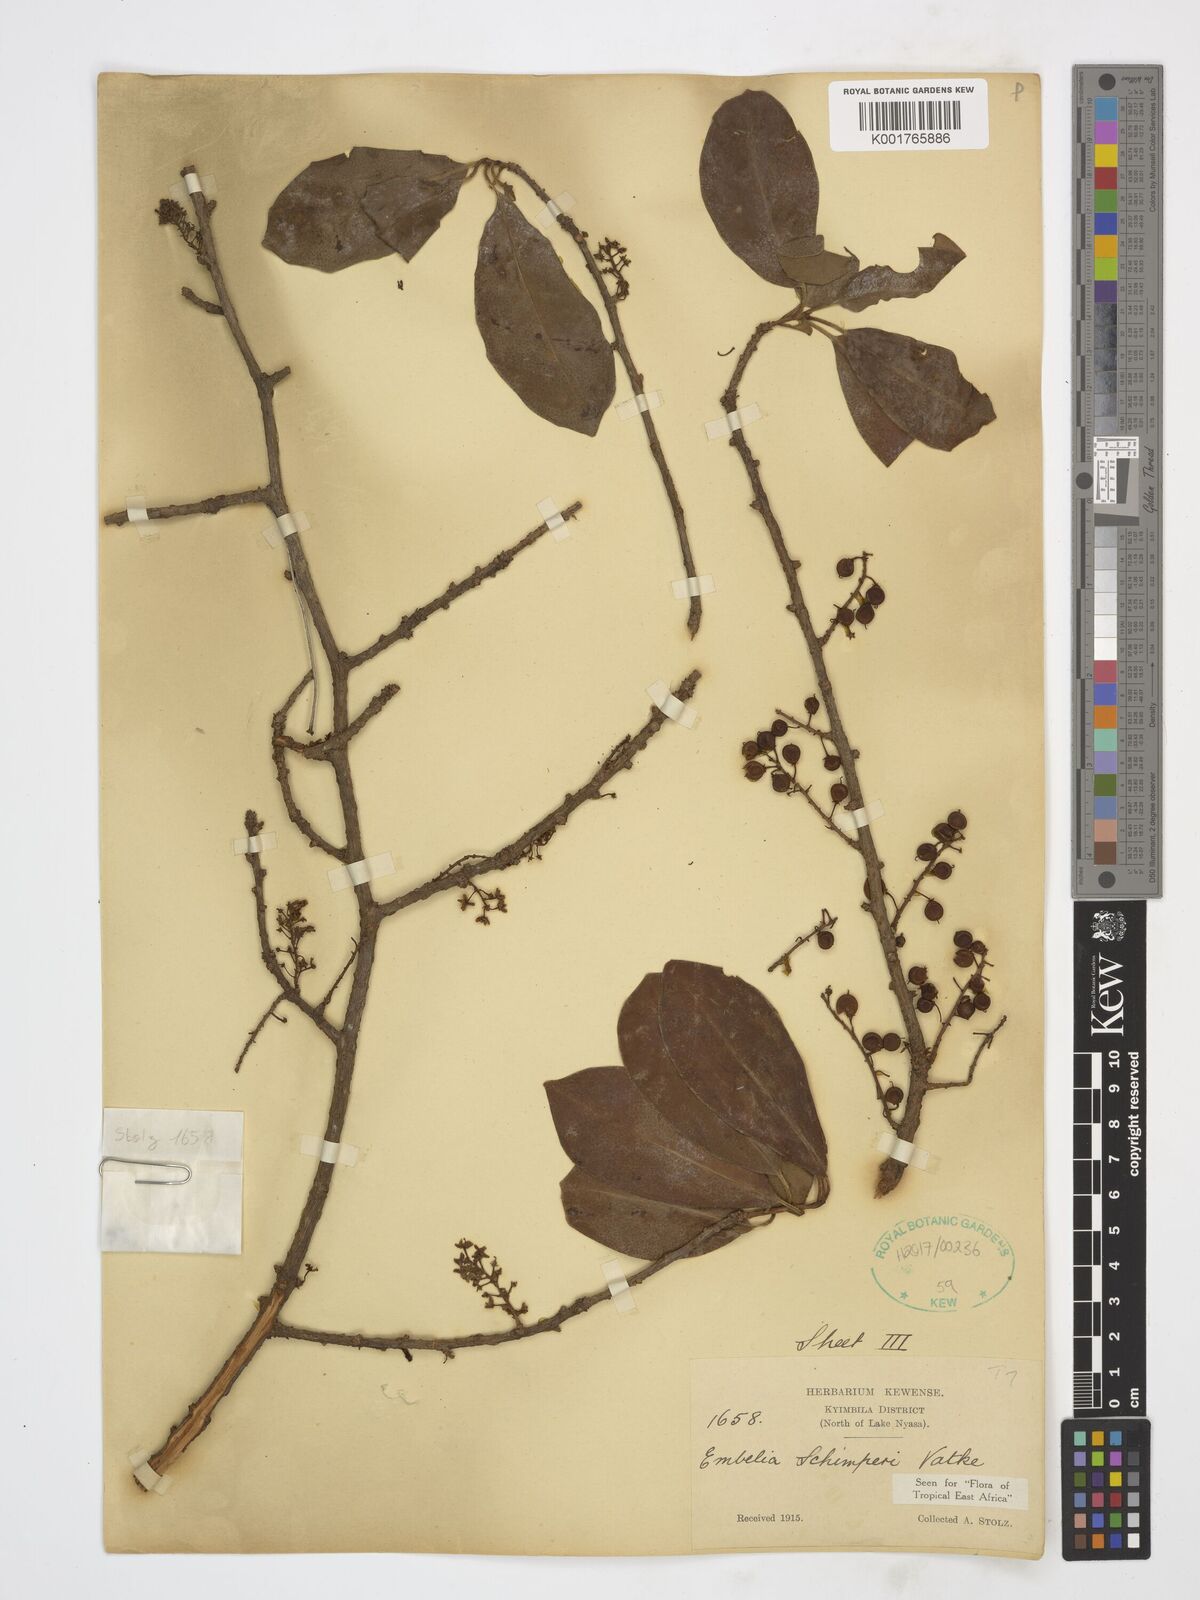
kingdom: Plantae
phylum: Tracheophyta
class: Magnoliopsida
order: Ericales
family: Primulaceae
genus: Embelia
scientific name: Embelia schimperi
